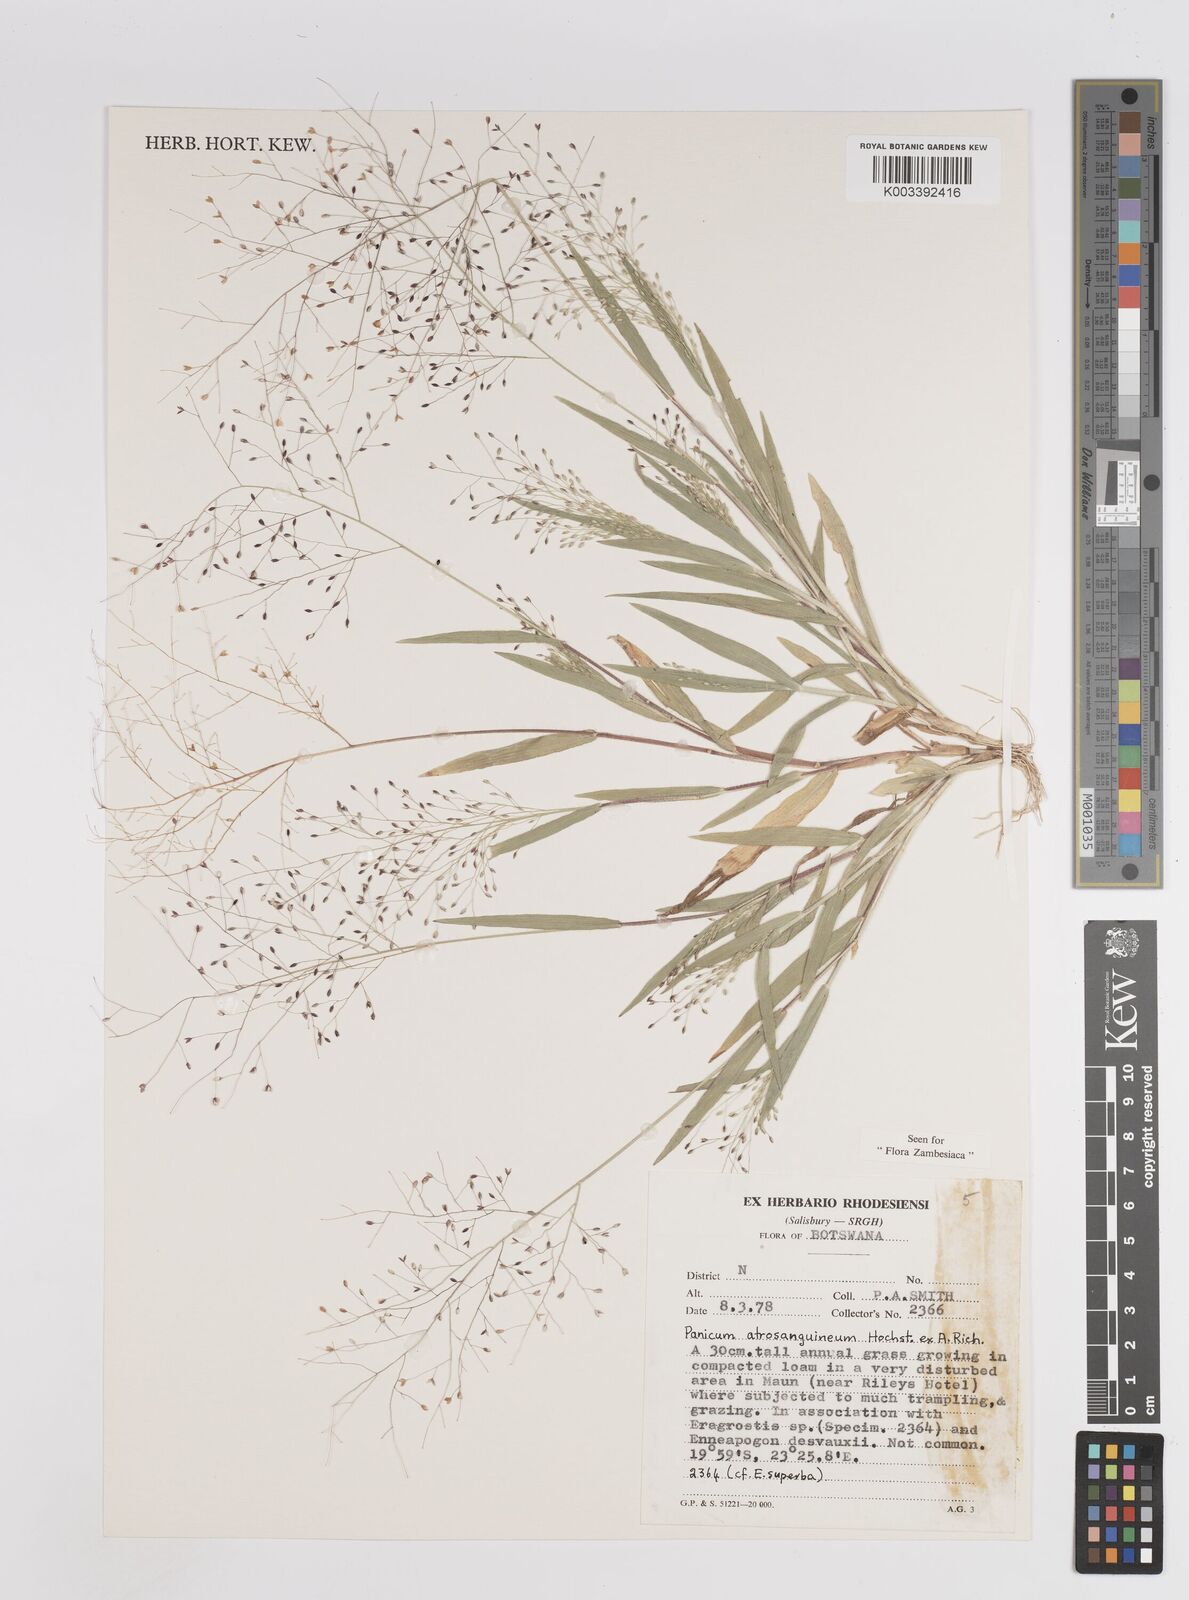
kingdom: Plantae
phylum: Tracheophyta
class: Liliopsida
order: Poales
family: Poaceae
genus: Panicum
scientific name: Panicum atrosanguineum
